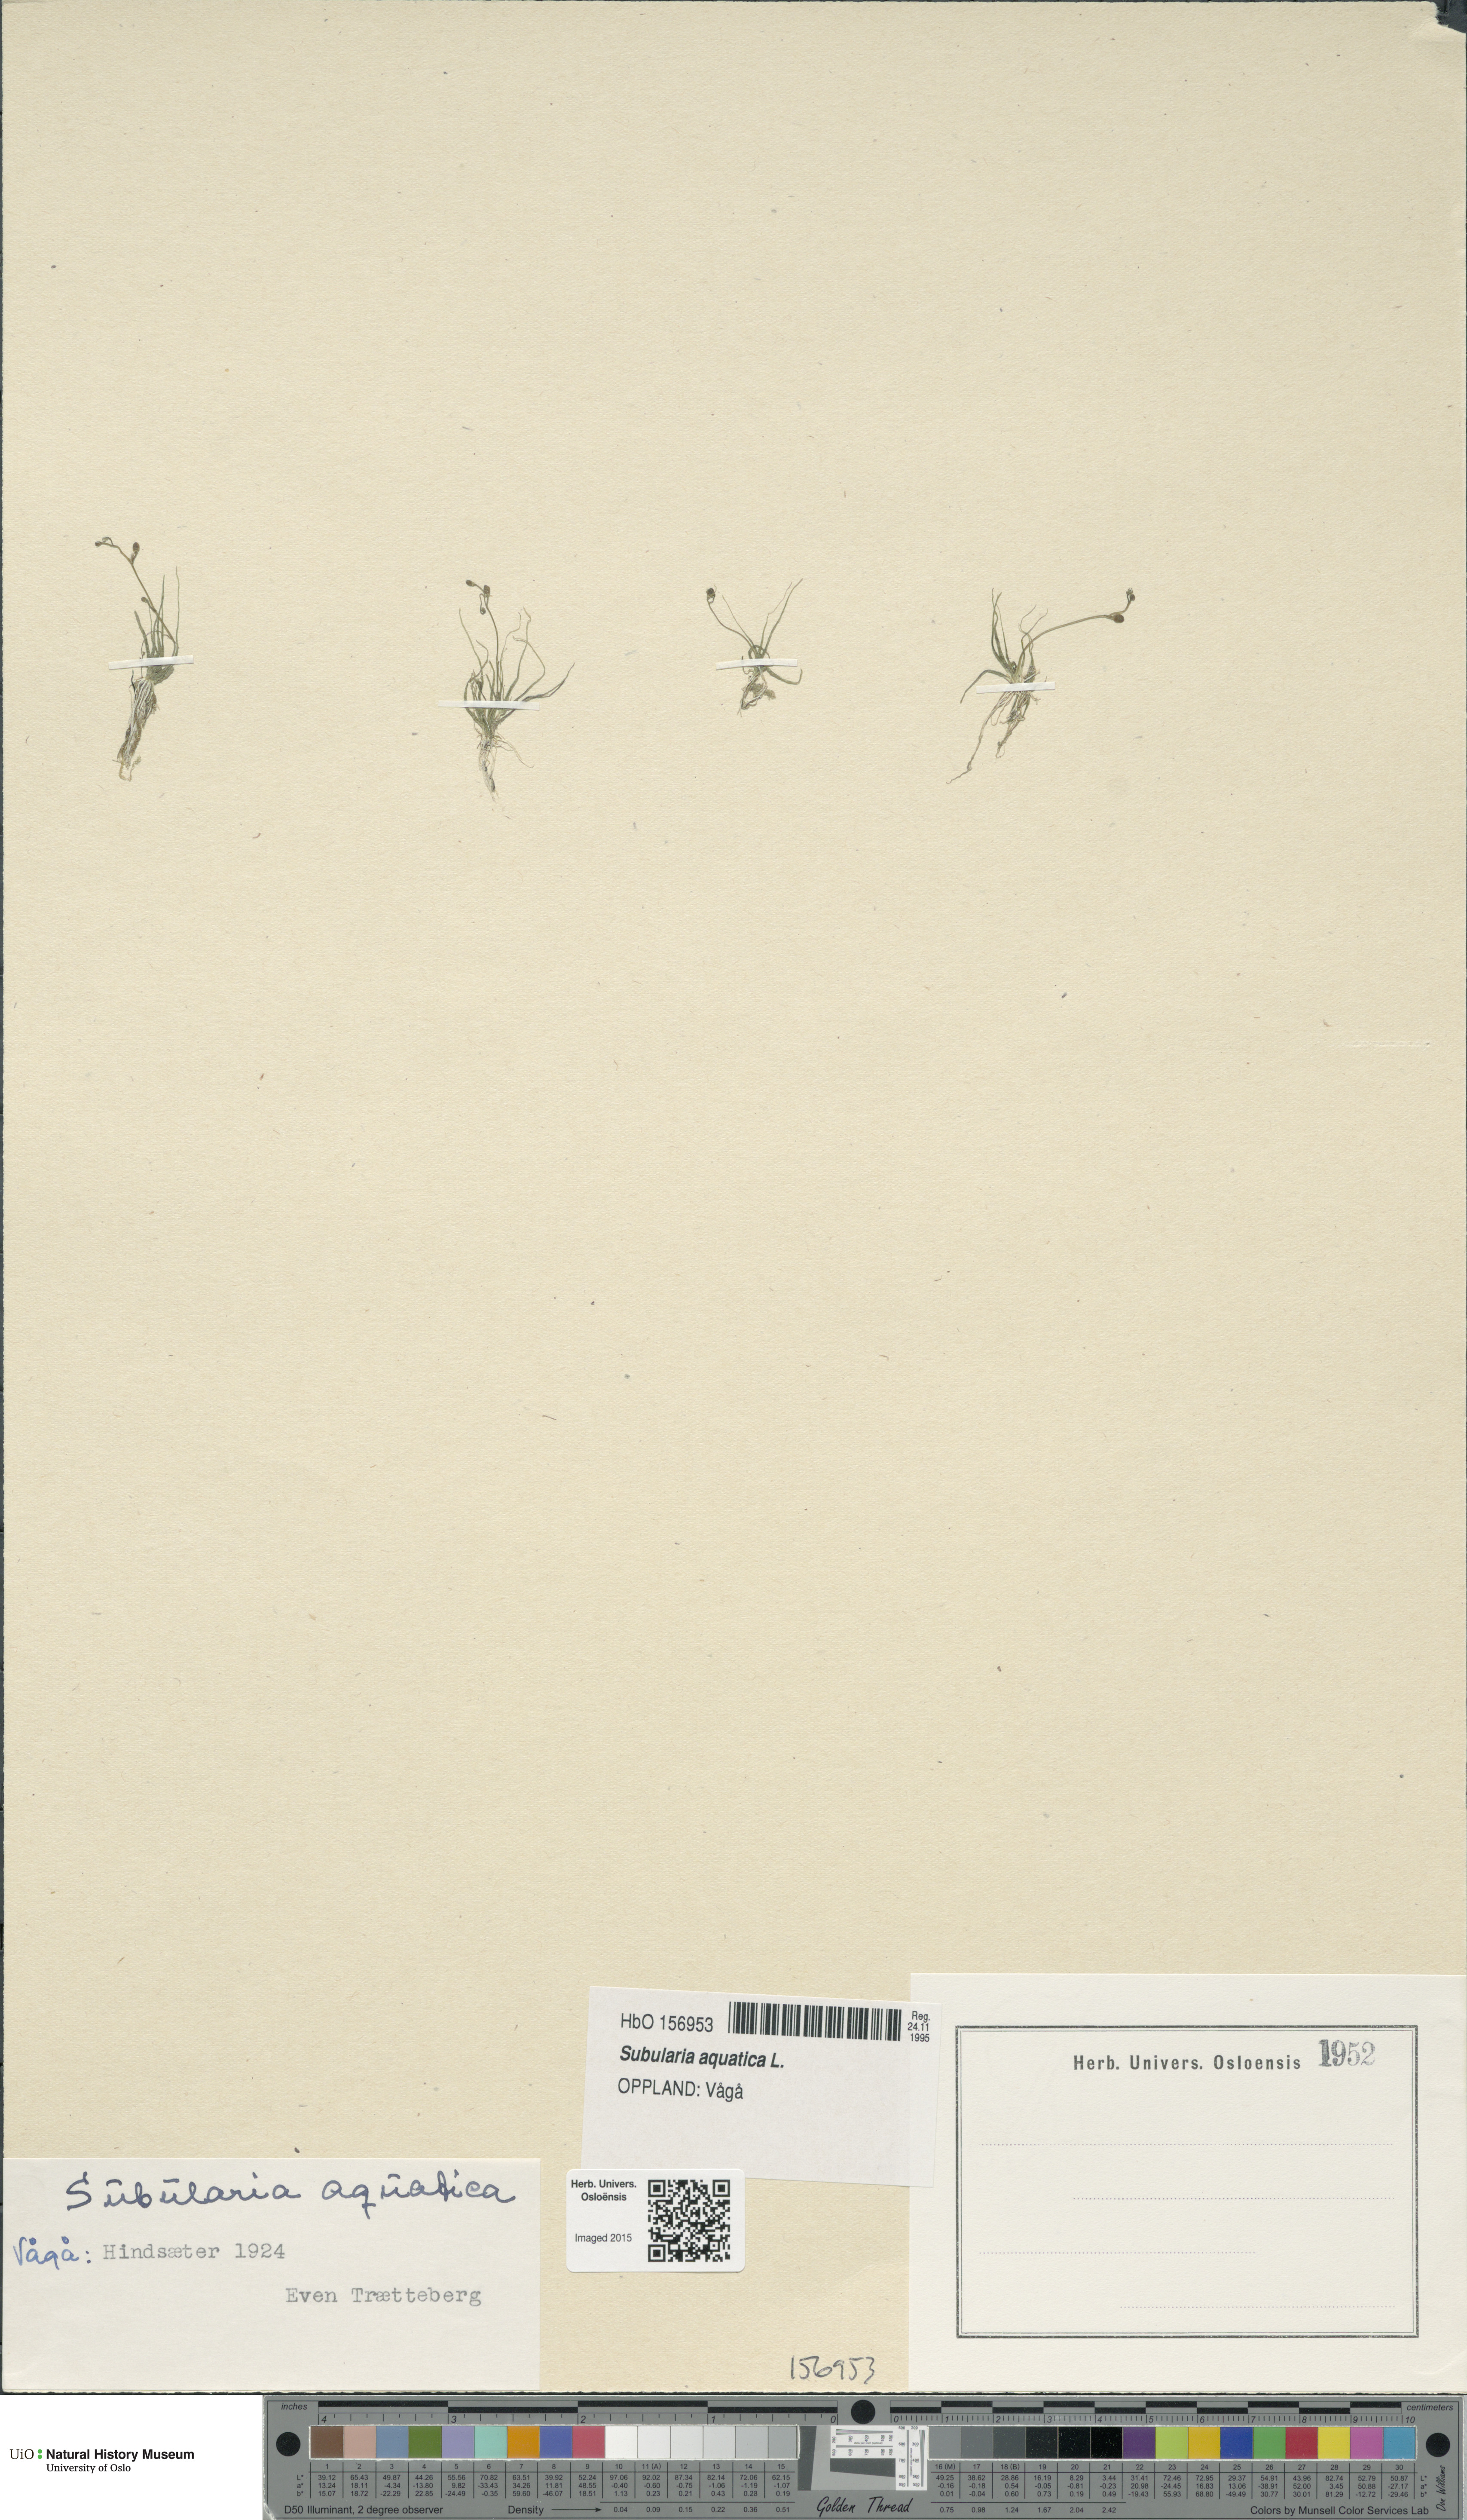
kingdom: Plantae
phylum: Tracheophyta
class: Magnoliopsida
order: Brassicales
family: Brassicaceae
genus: Subularia
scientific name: Subularia aquatica
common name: Awlwort
